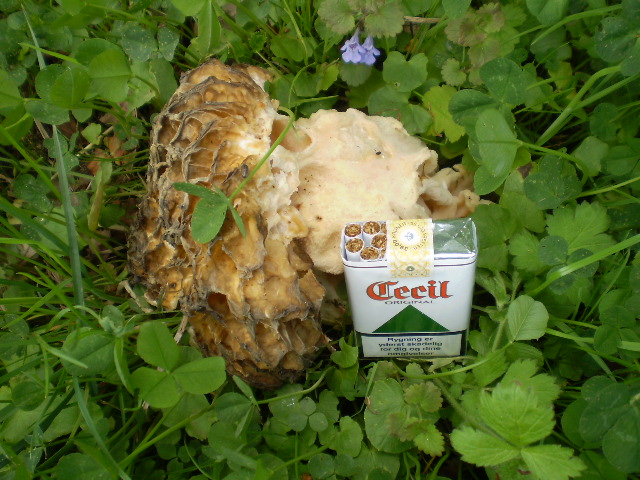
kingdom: Fungi
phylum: Ascomycota
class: Pezizomycetes
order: Pezizales
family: Morchellaceae
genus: Morchella
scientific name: Morchella esculenta
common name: spiselig morkel
